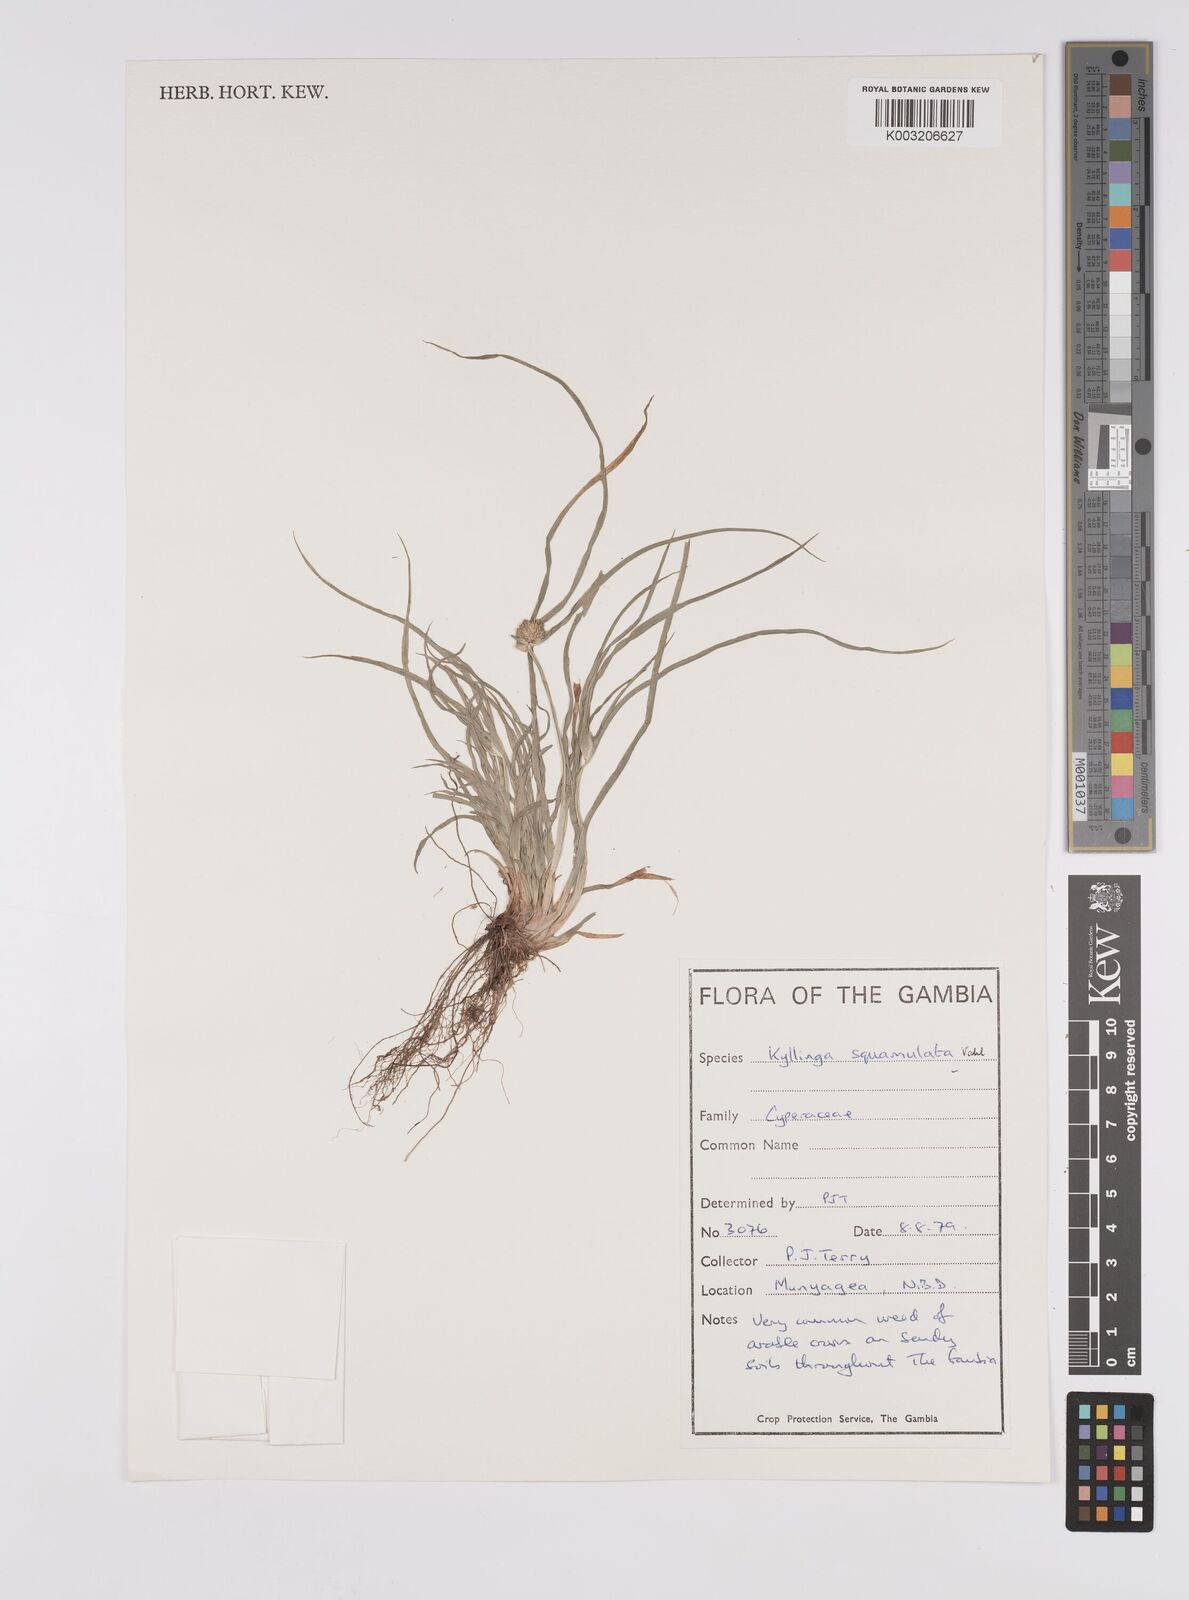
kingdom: Plantae
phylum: Tracheophyta
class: Liliopsida
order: Poales
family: Cyperaceae
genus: Cyperus
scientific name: Cyperus distans
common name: Slender cyperus
